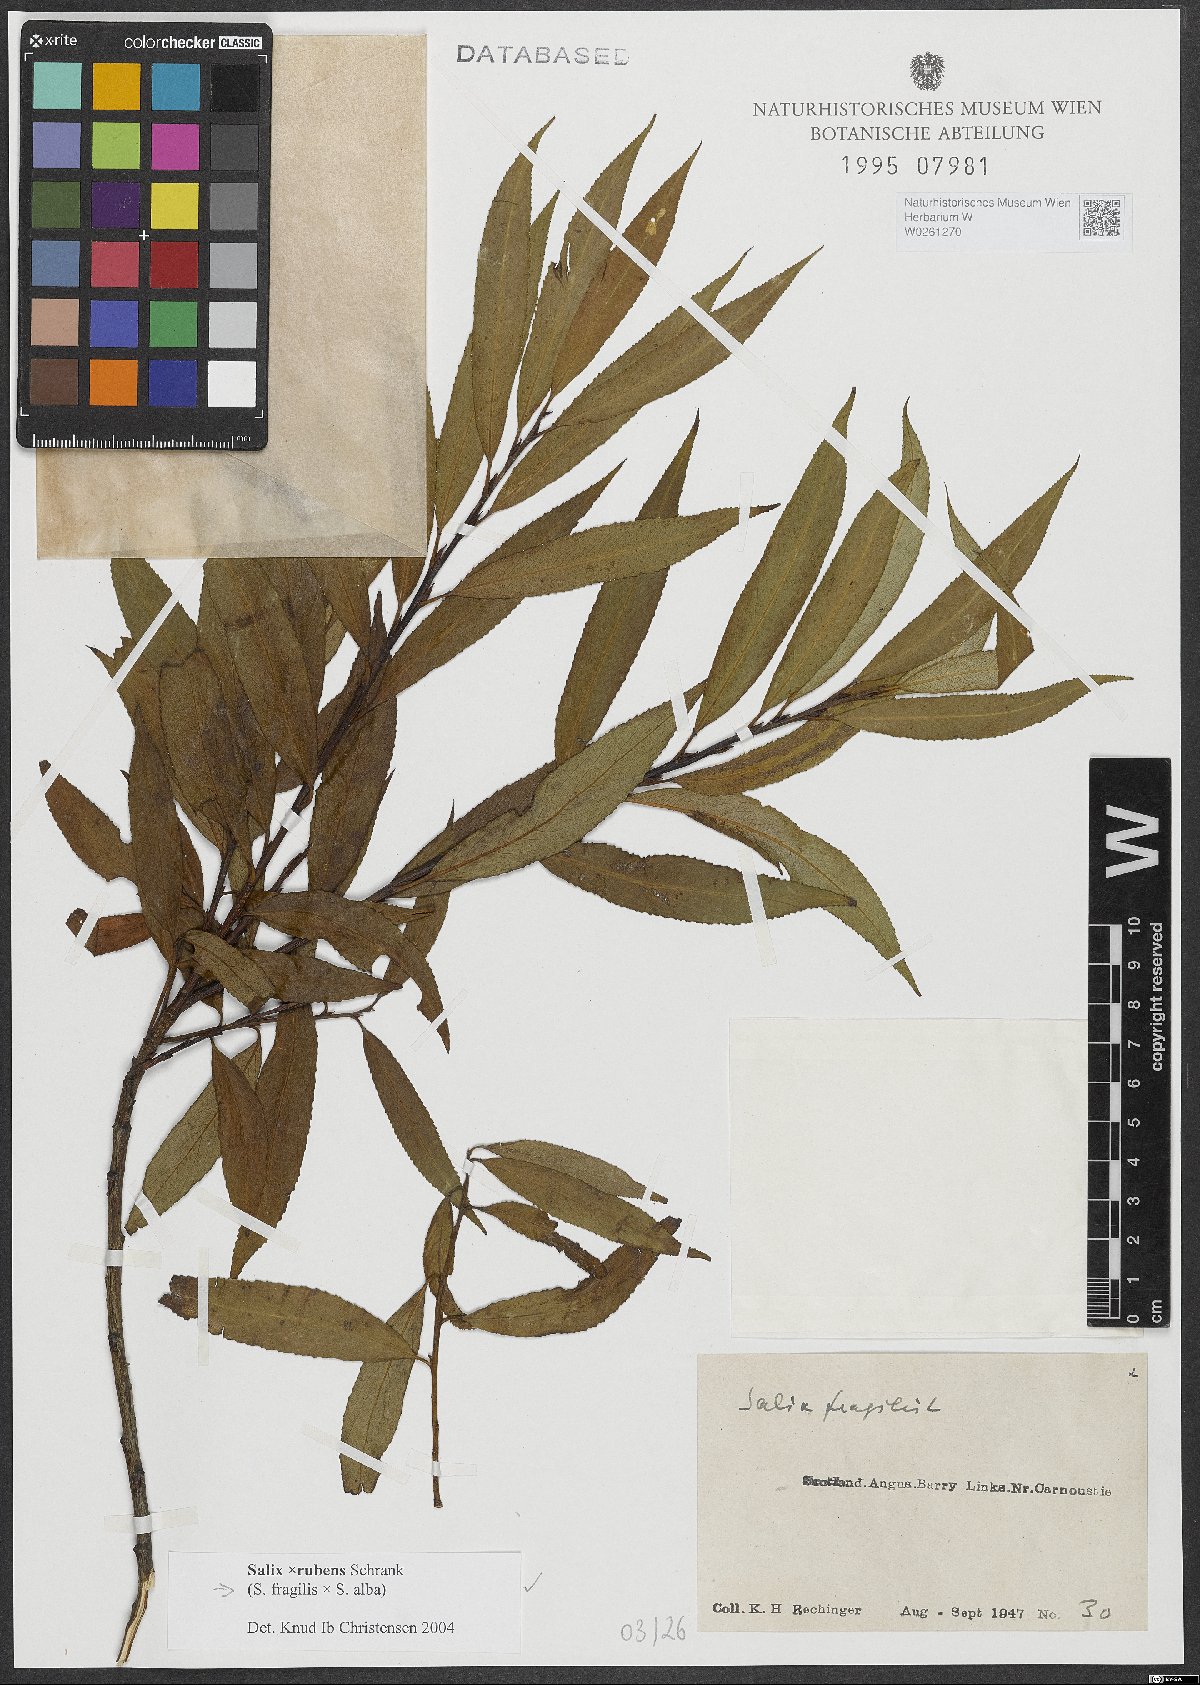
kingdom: Plantae
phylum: Tracheophyta
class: Magnoliopsida
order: Malpighiales
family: Salicaceae
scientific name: Salicaceae
